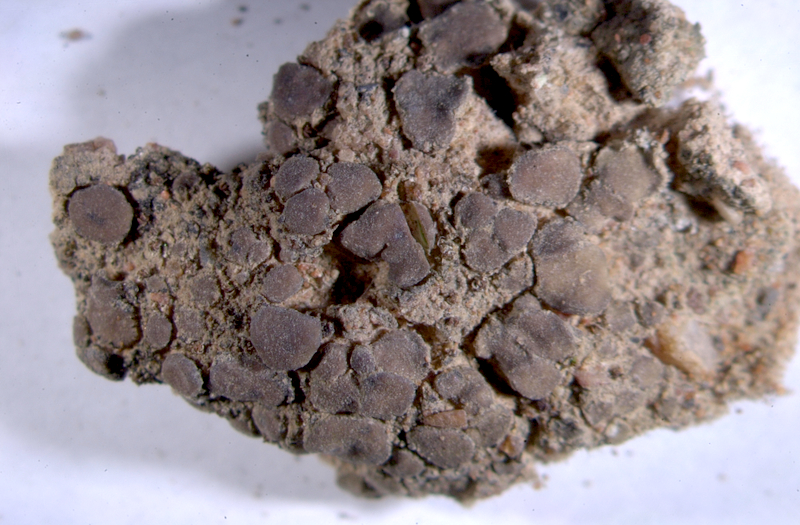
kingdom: Fungi
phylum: Ascomycota
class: Eurotiomycetes
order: Verrucariales
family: Verrucariaceae
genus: Catapyrenium
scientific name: Catapyrenium tenellum
